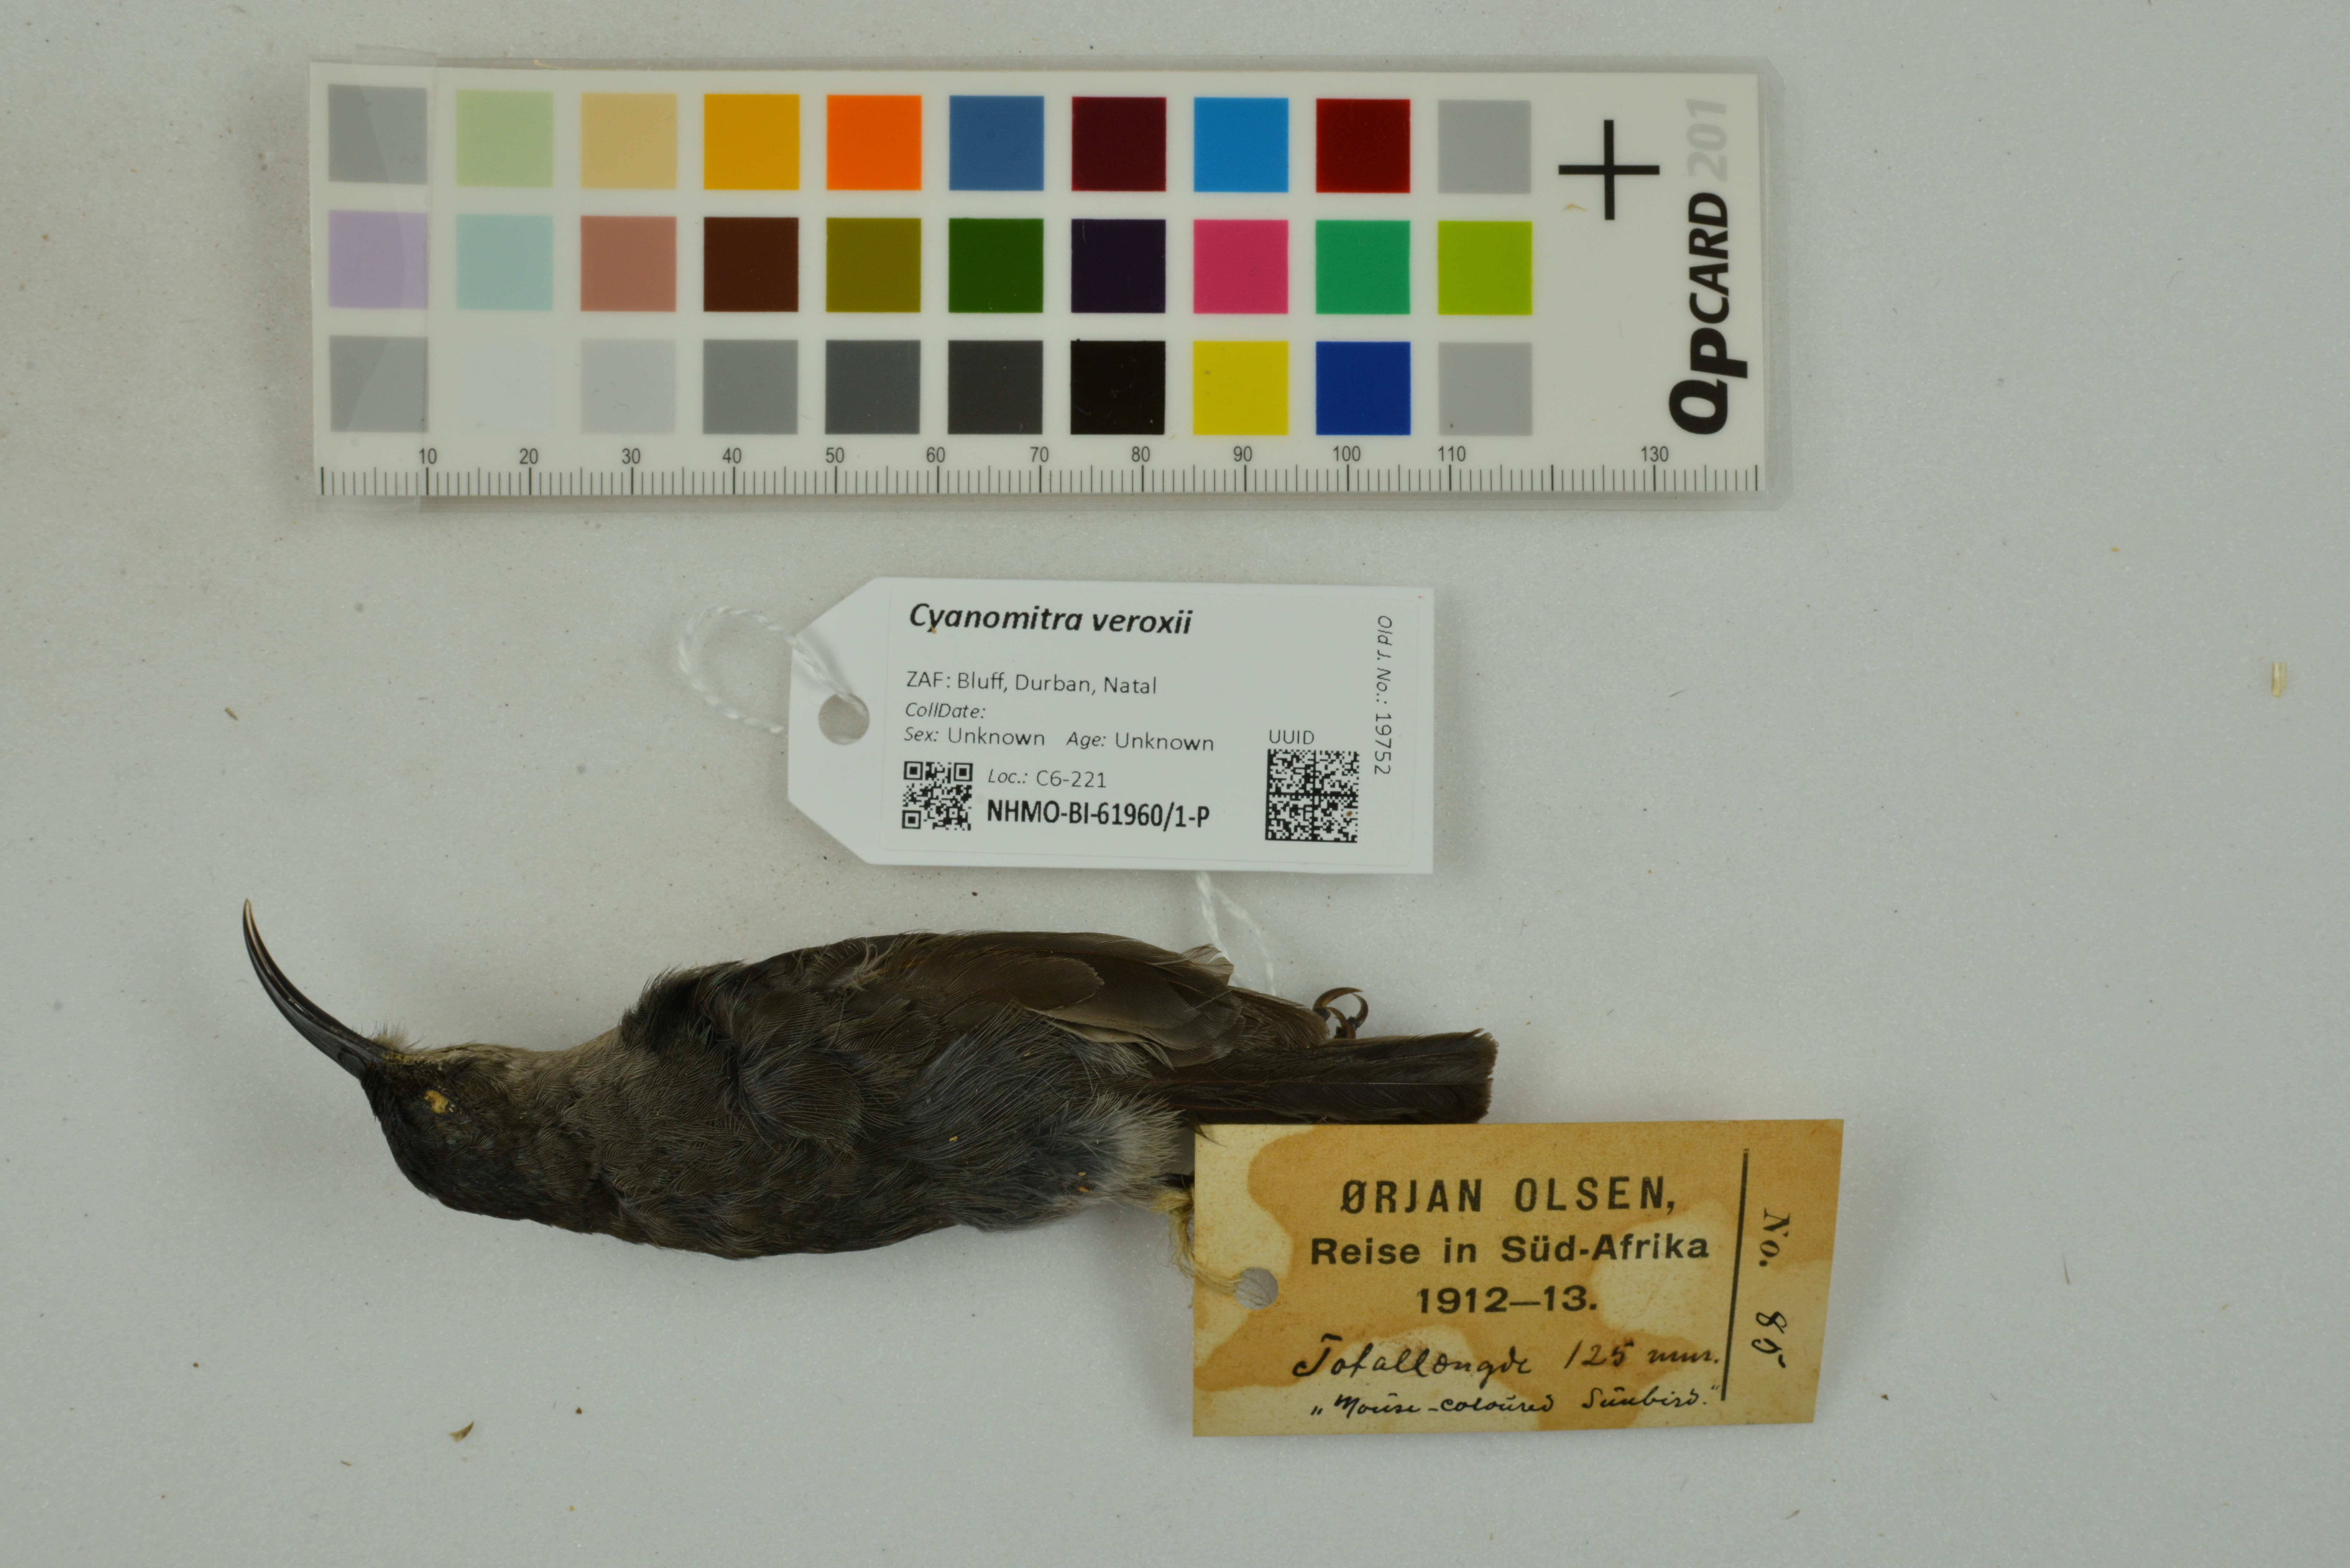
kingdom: Animalia
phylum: Chordata
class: Aves
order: Passeriformes
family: Nectariniidae
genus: Cyanomitra
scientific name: Cyanomitra veroxii
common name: Grey sunbird
